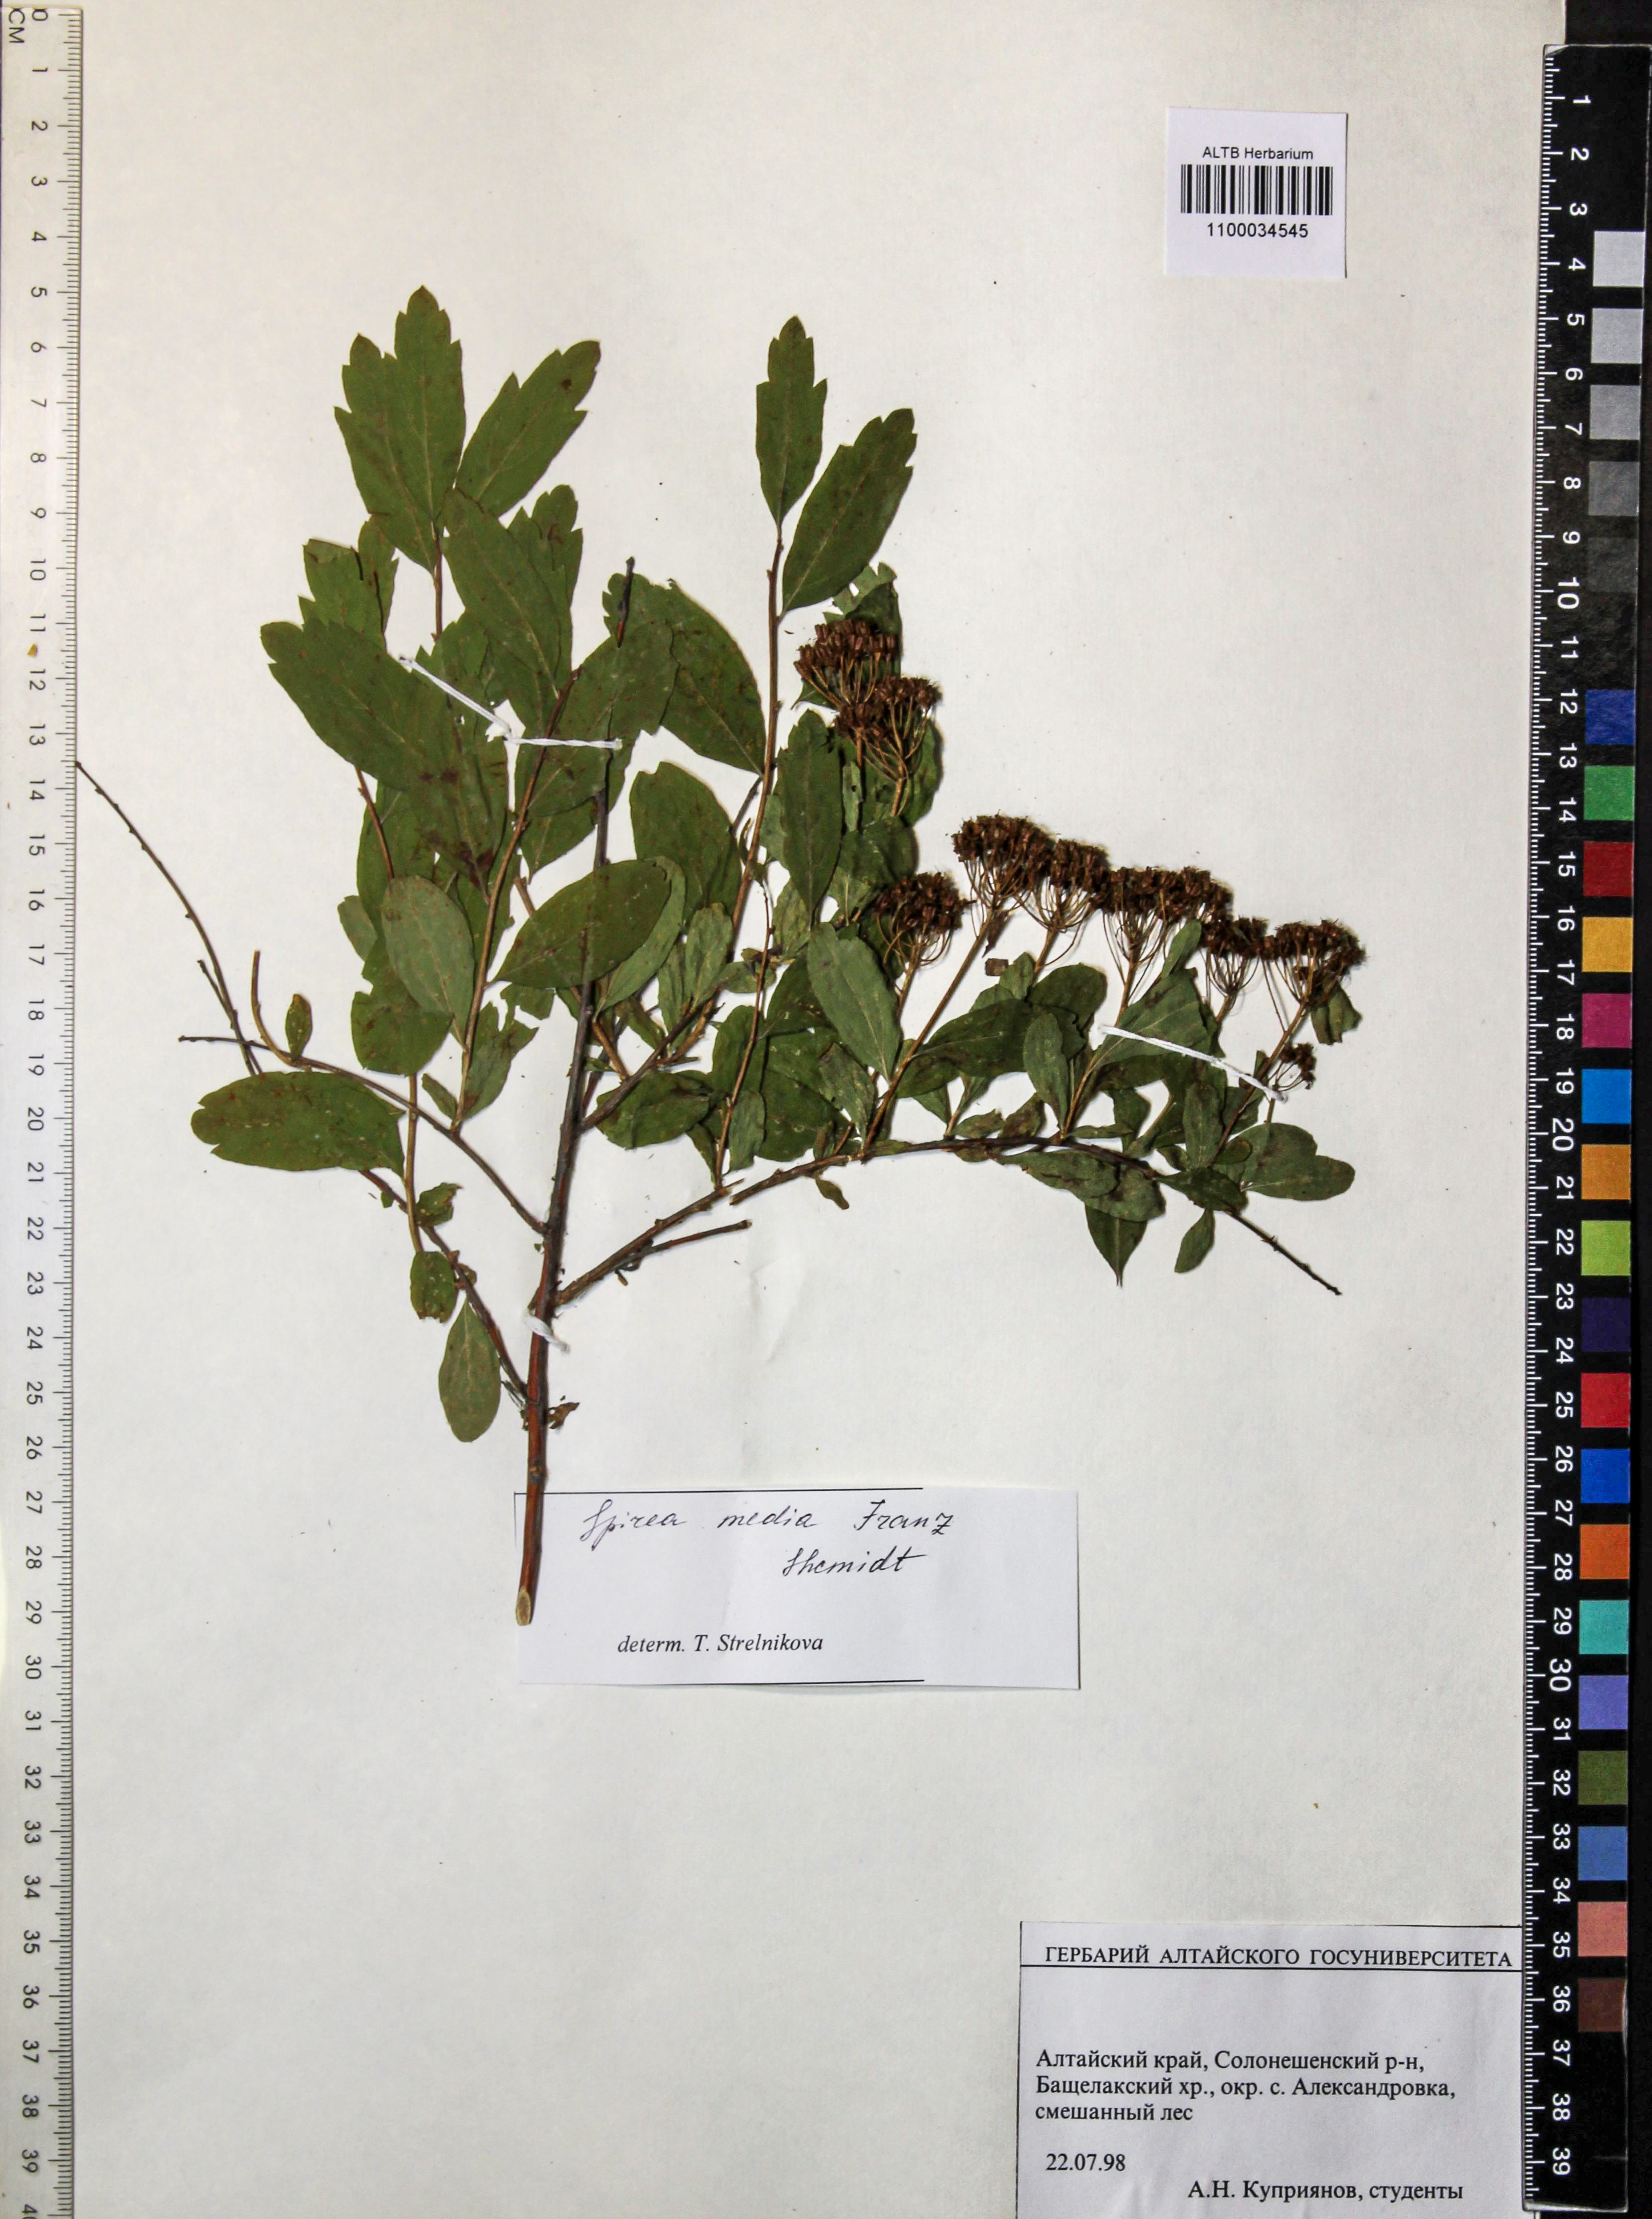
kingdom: Plantae
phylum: Tracheophyta
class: Magnoliopsida
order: Rosales
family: Rosaceae
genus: Spiraea
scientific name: Spiraea media
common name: Russian spiraea
